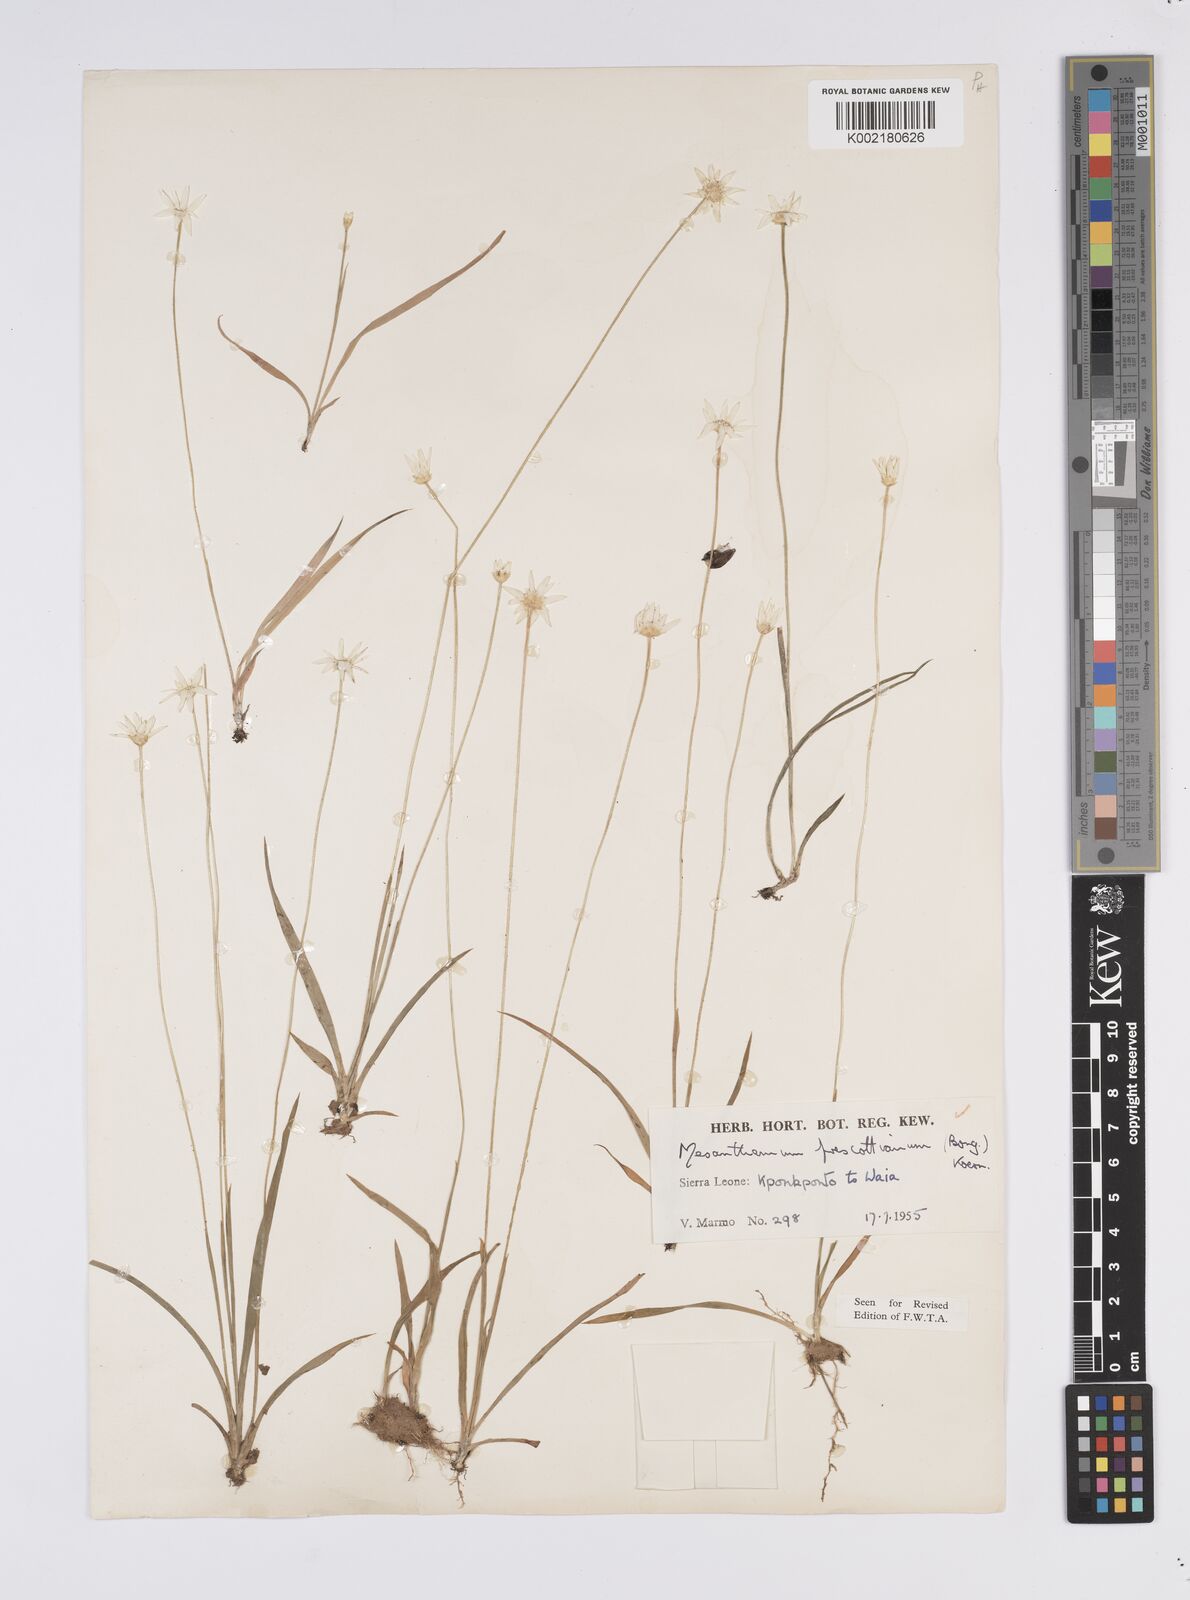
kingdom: Plantae
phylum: Tracheophyta
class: Liliopsida
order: Poales
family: Eriocaulaceae
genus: Mesanthemum
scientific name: Mesanthemum prescottianum
